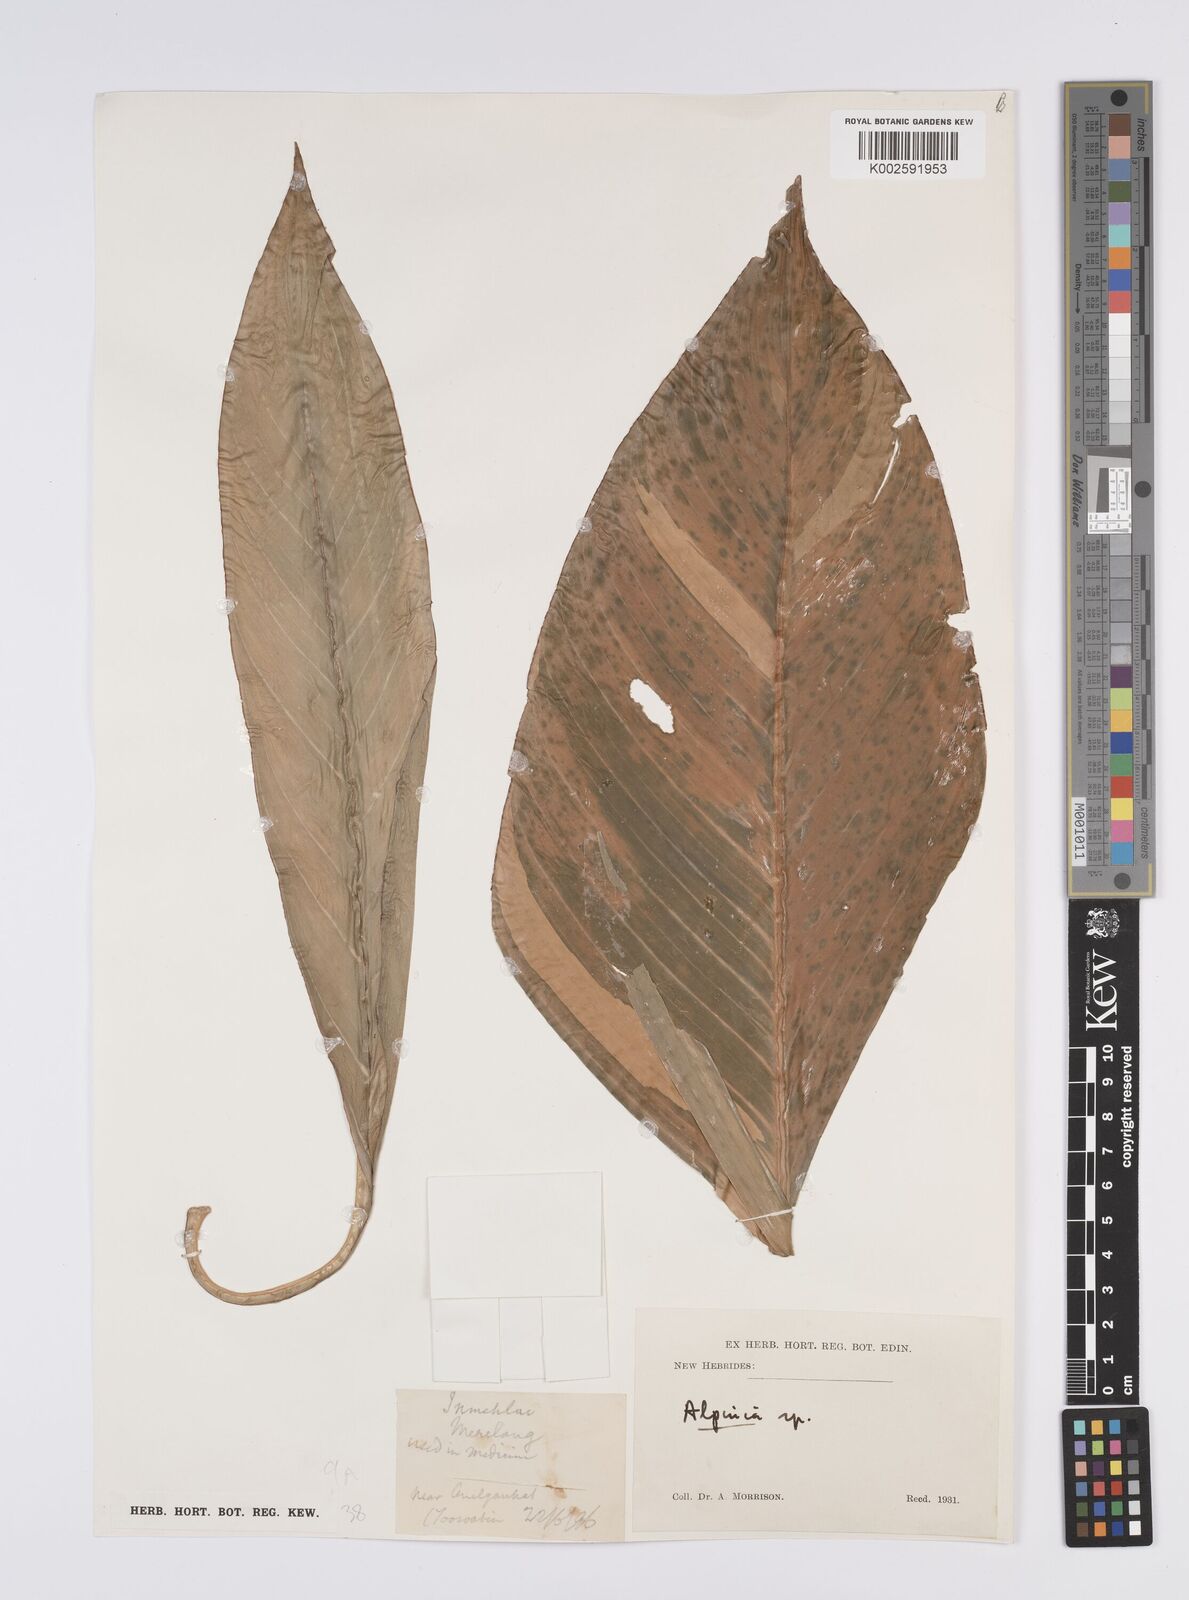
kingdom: Plantae
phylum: Tracheophyta
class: Liliopsida
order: Zingiberales
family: Zingiberaceae
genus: Alpinia
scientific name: Alpinia
